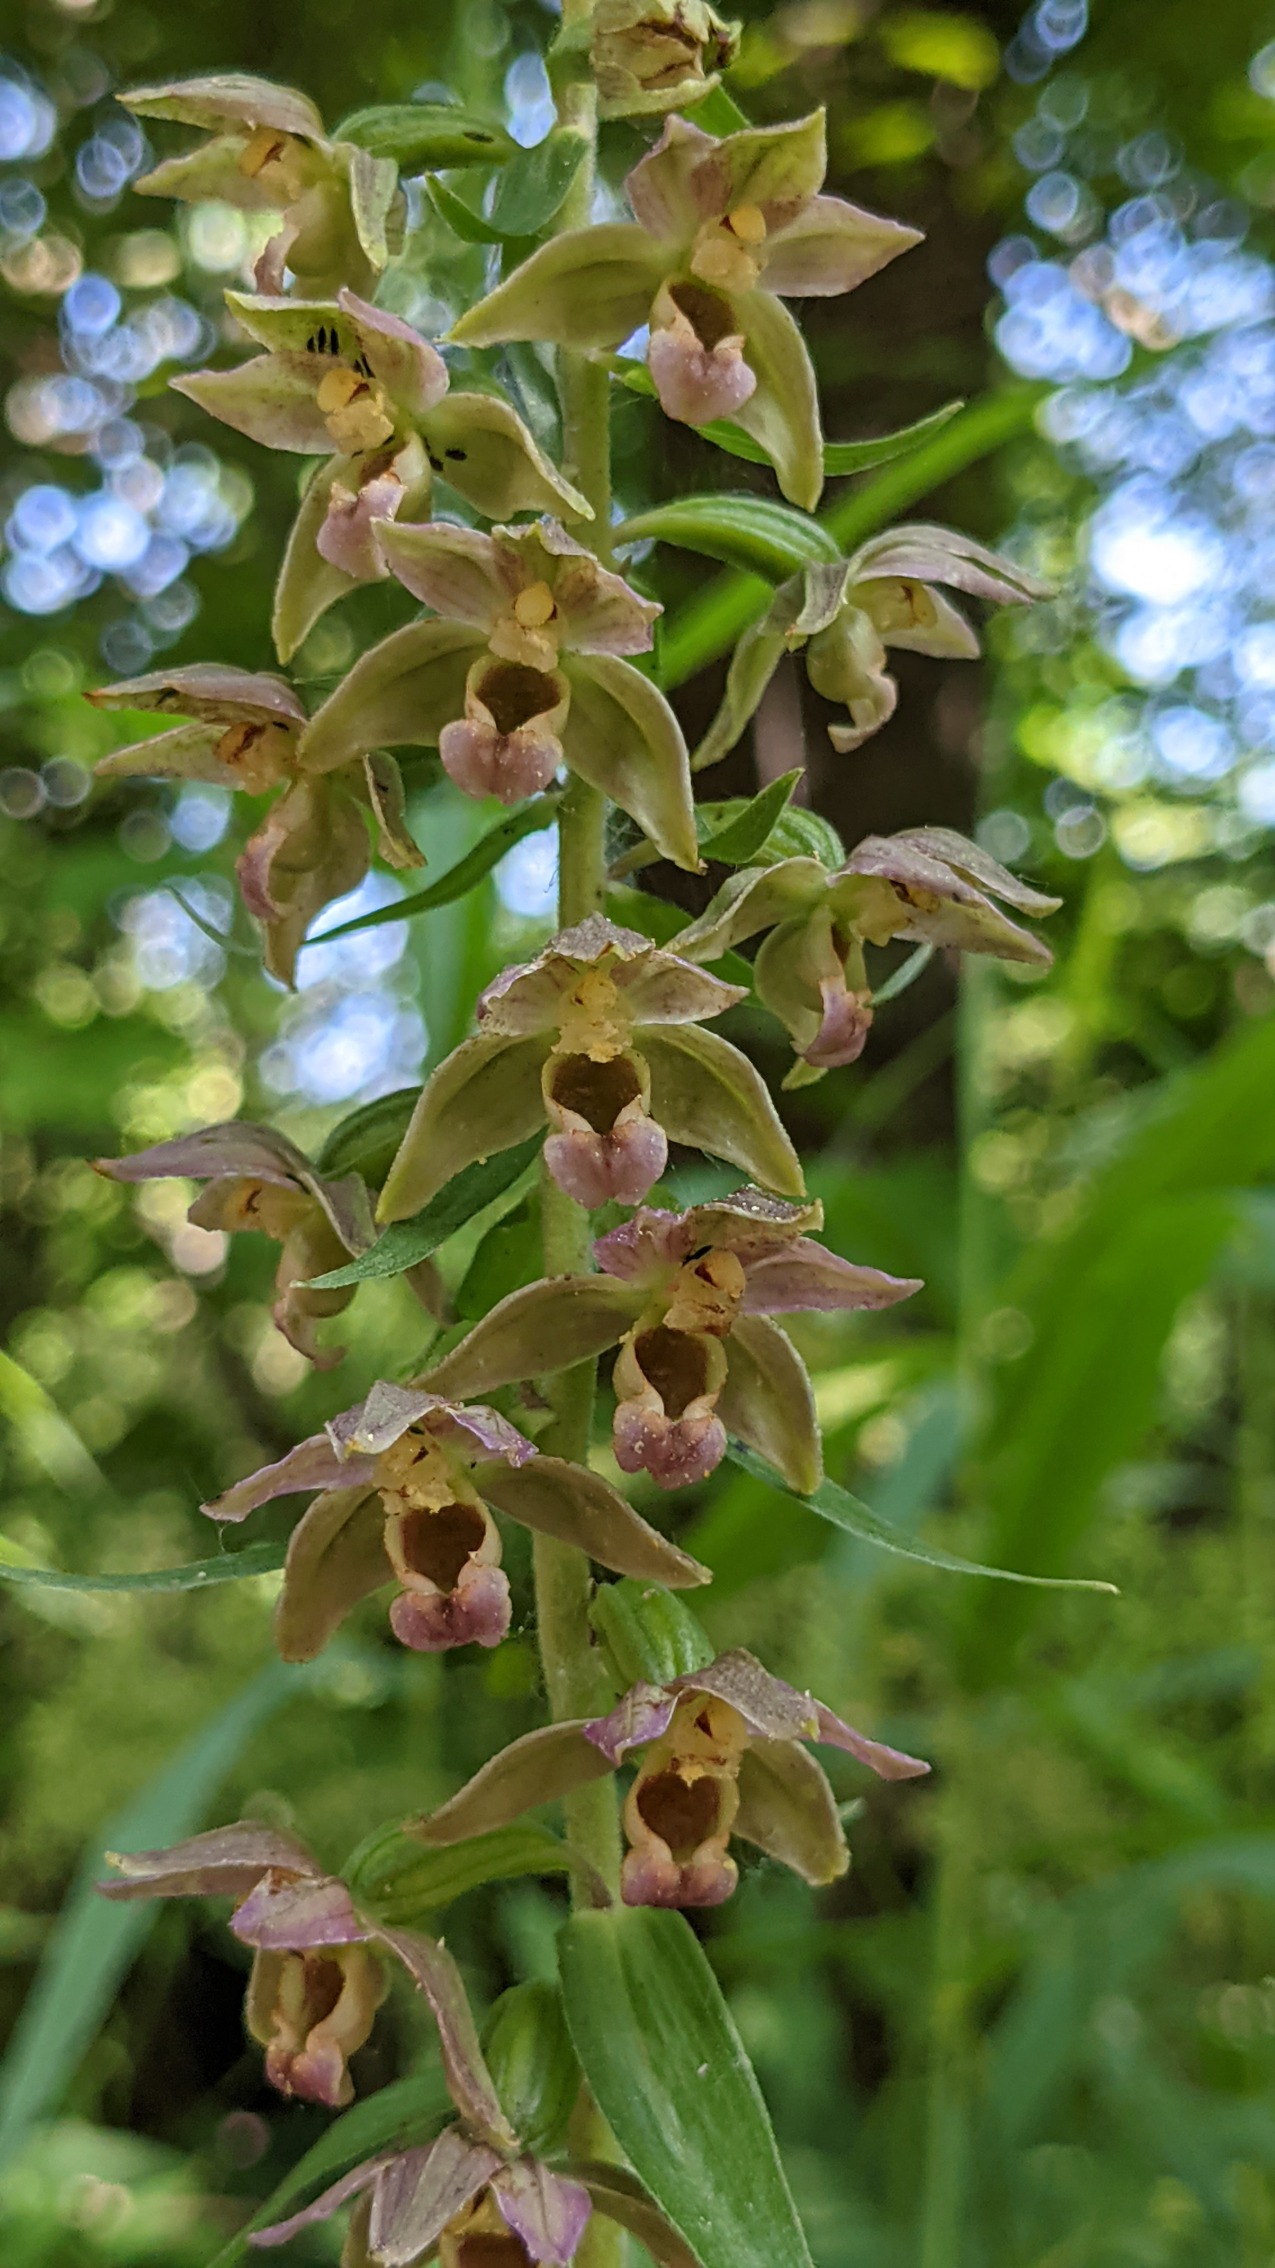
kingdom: Plantae
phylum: Tracheophyta
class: Liliopsida
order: Asparagales
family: Orchidaceae
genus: Epipactis
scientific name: Epipactis helleborine
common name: Skov-hullæbe
